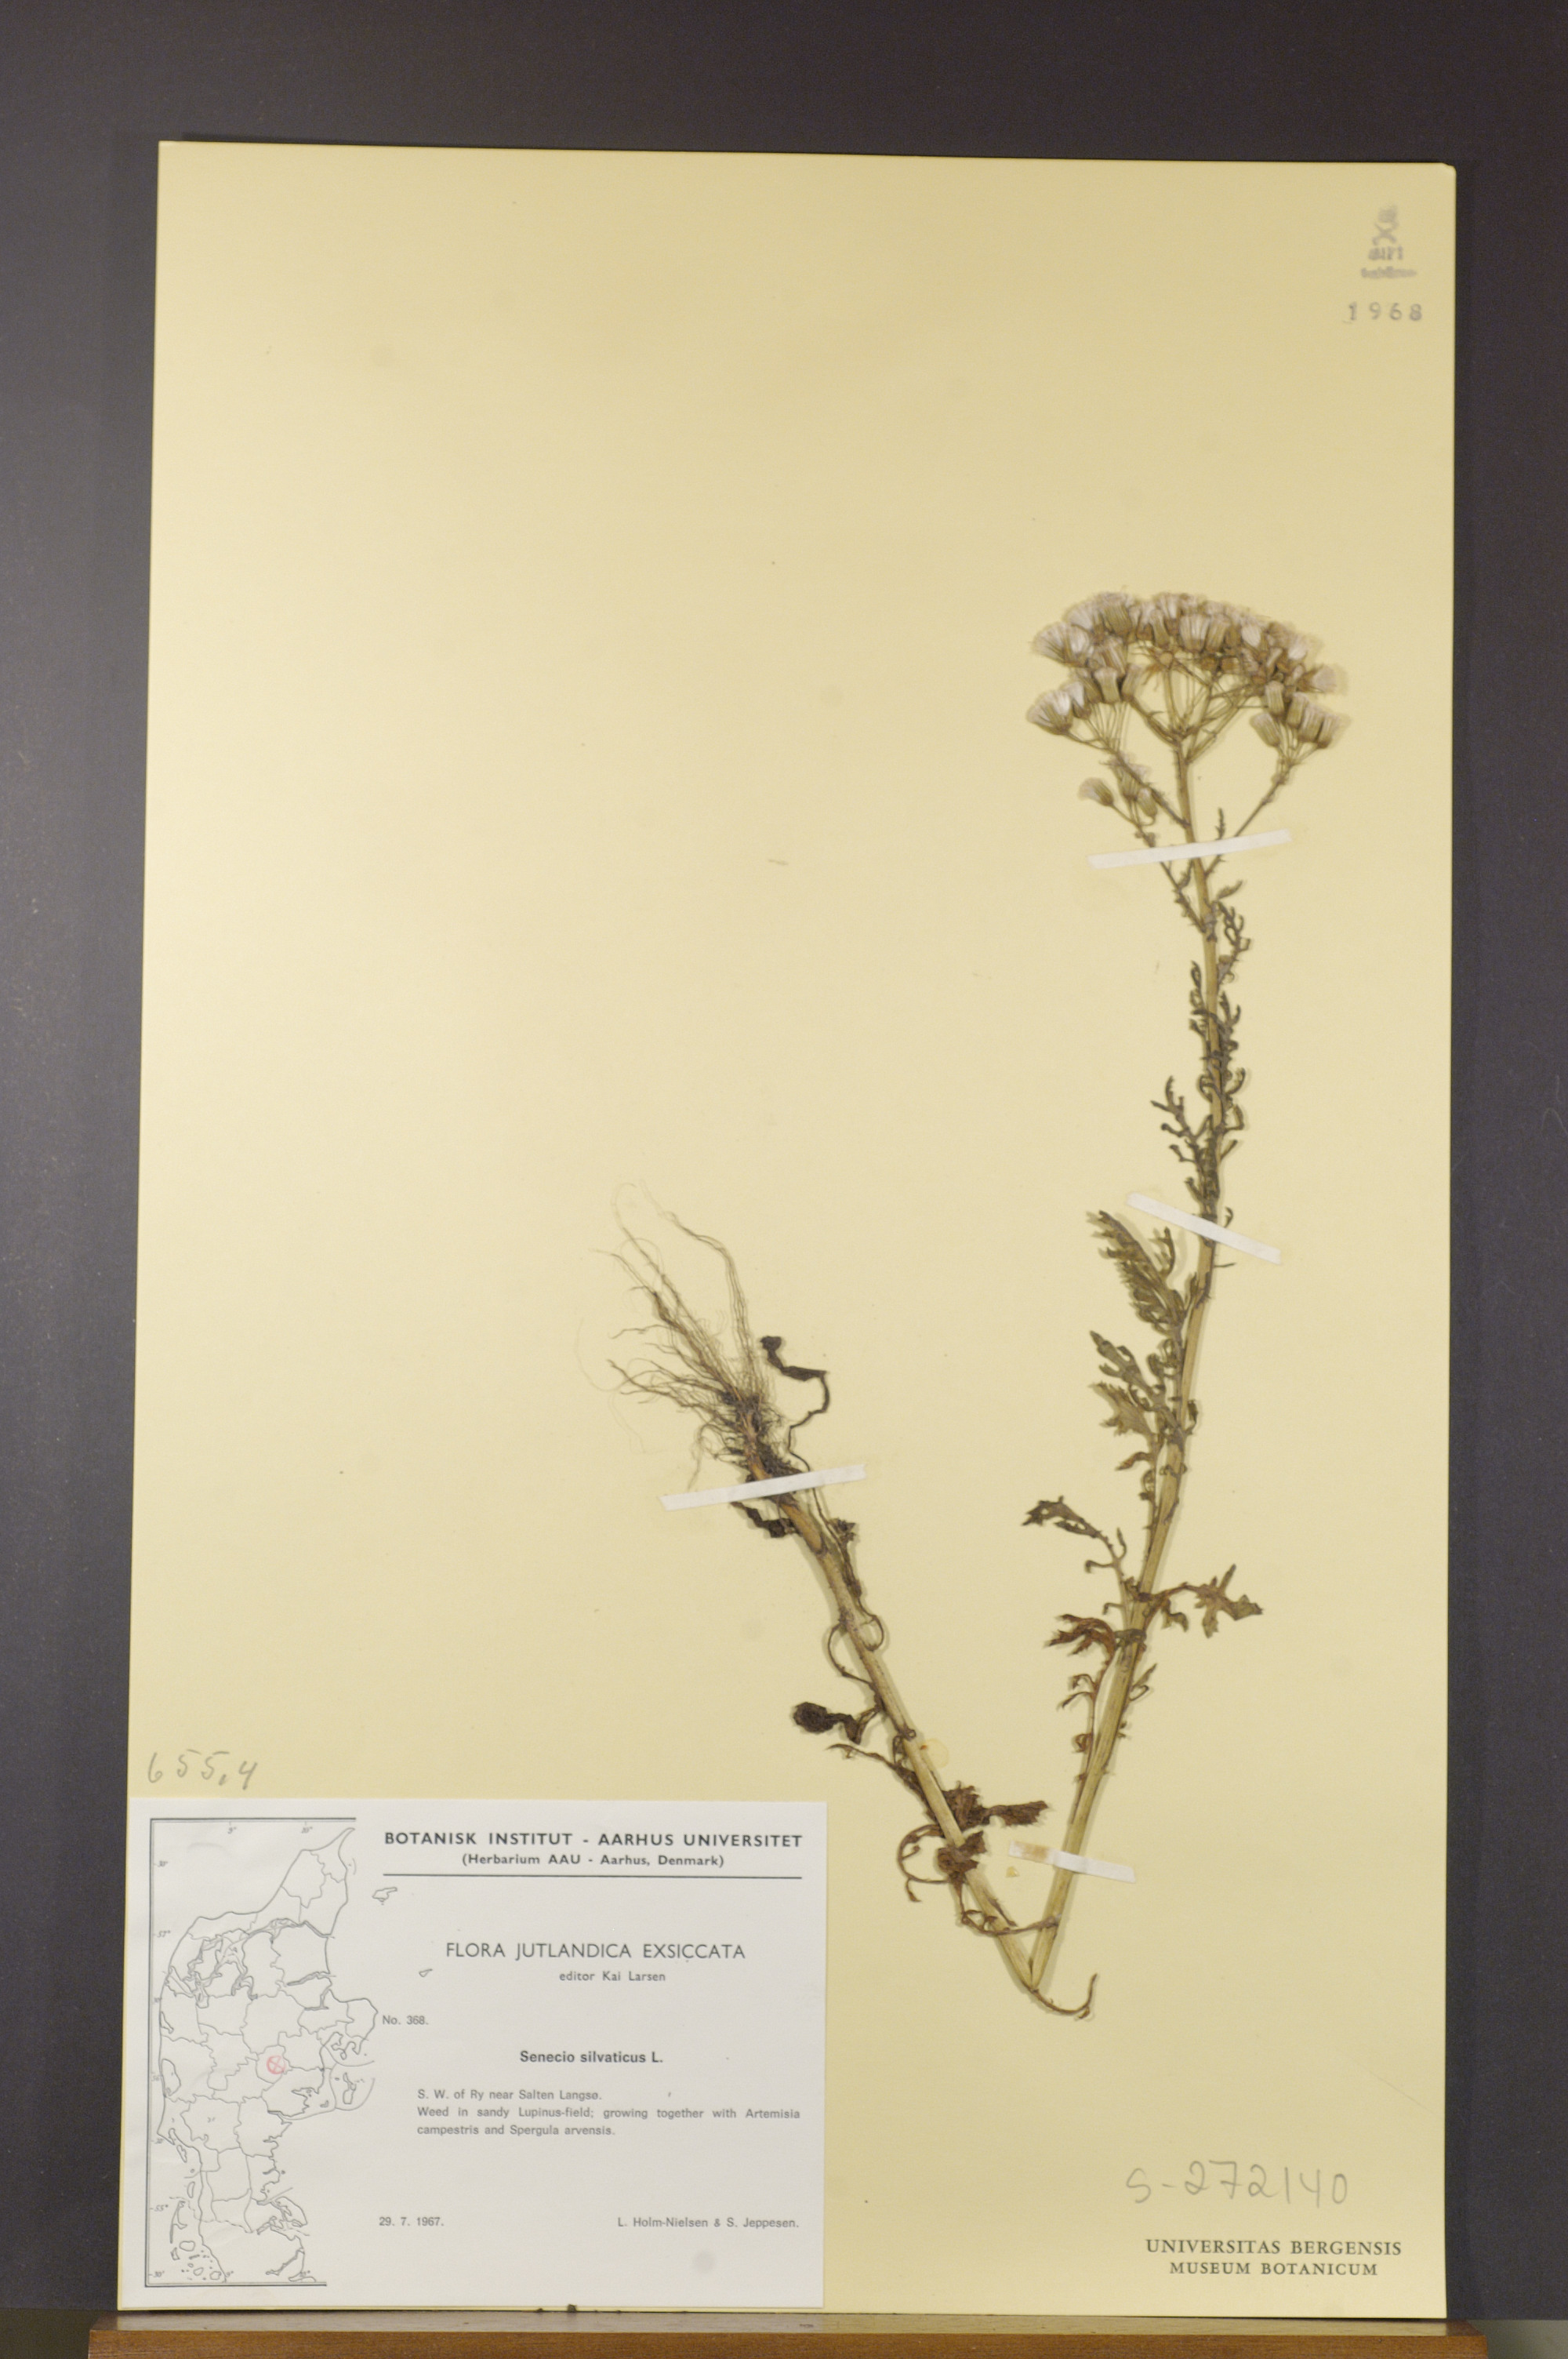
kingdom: Plantae
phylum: Tracheophyta
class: Magnoliopsida
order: Asterales
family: Asteraceae
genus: Senecio
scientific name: Senecio sylvaticus
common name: Woodland ragwort
